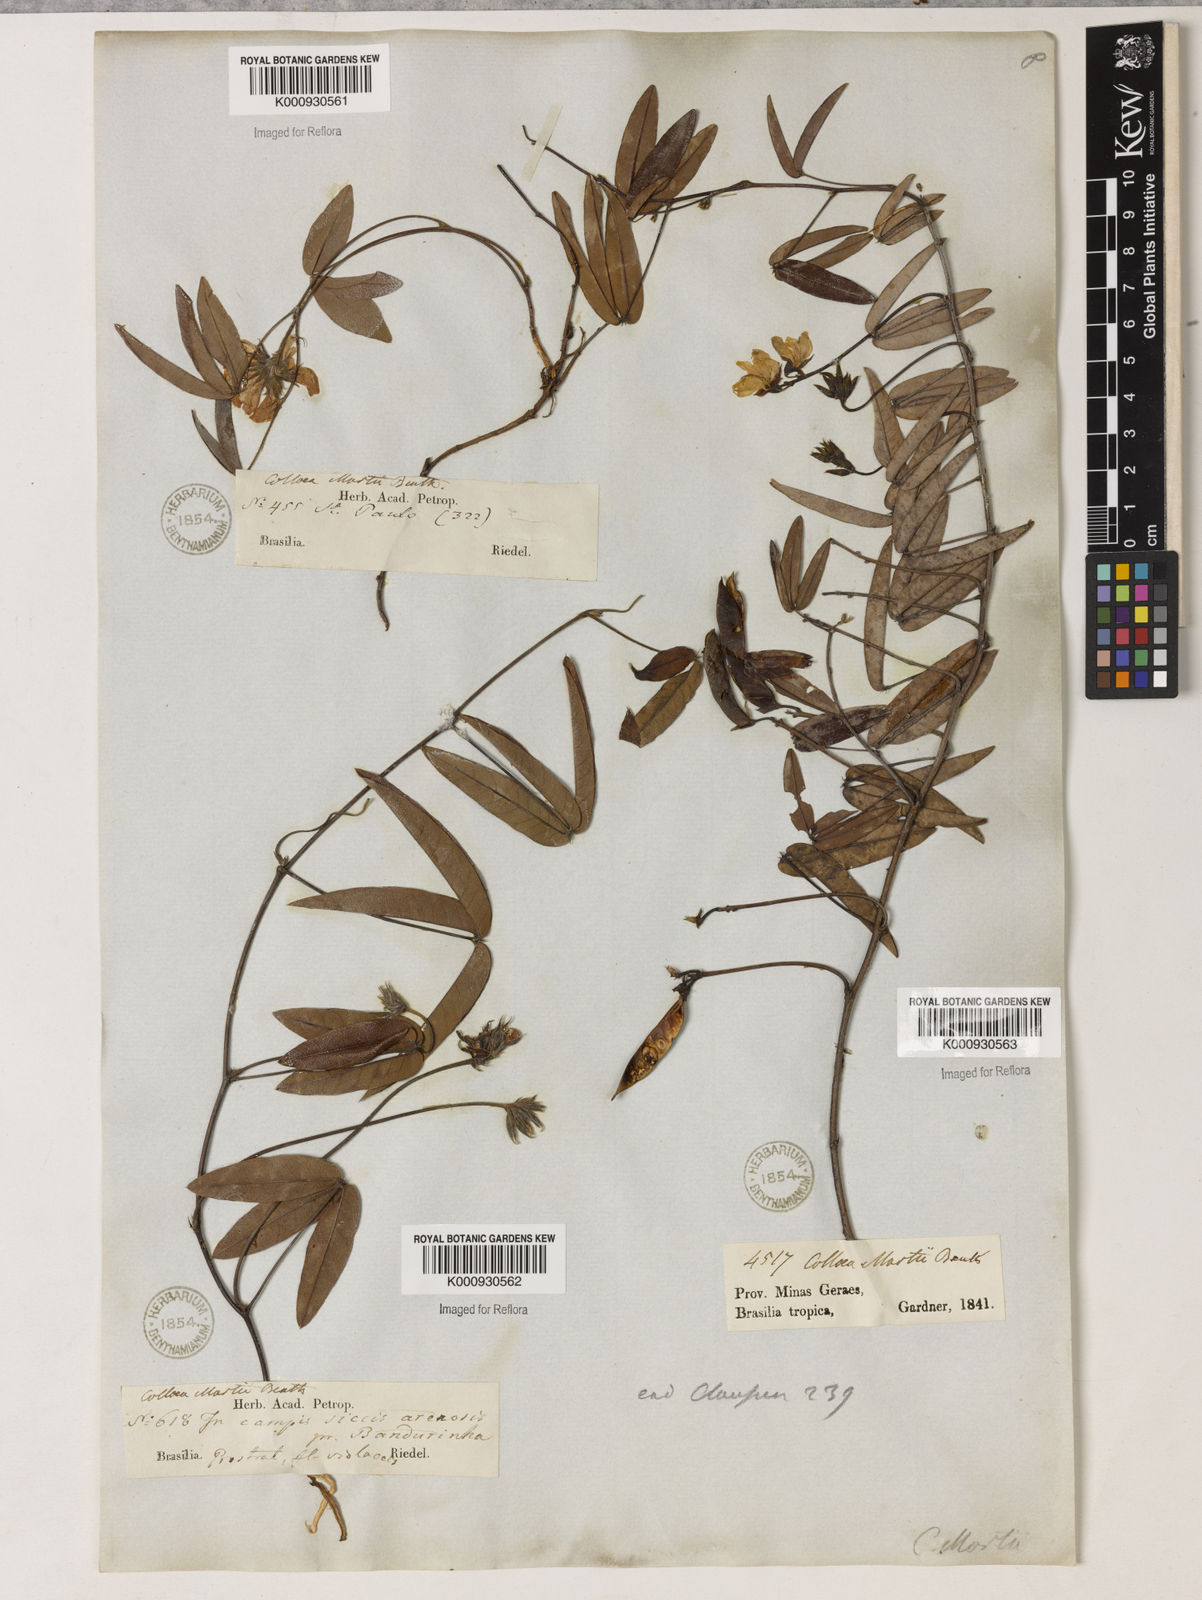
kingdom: Plantae
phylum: Tracheophyta
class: Magnoliopsida
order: Fabales
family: Fabaceae
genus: Betencourtia
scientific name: Betencourtia martii
